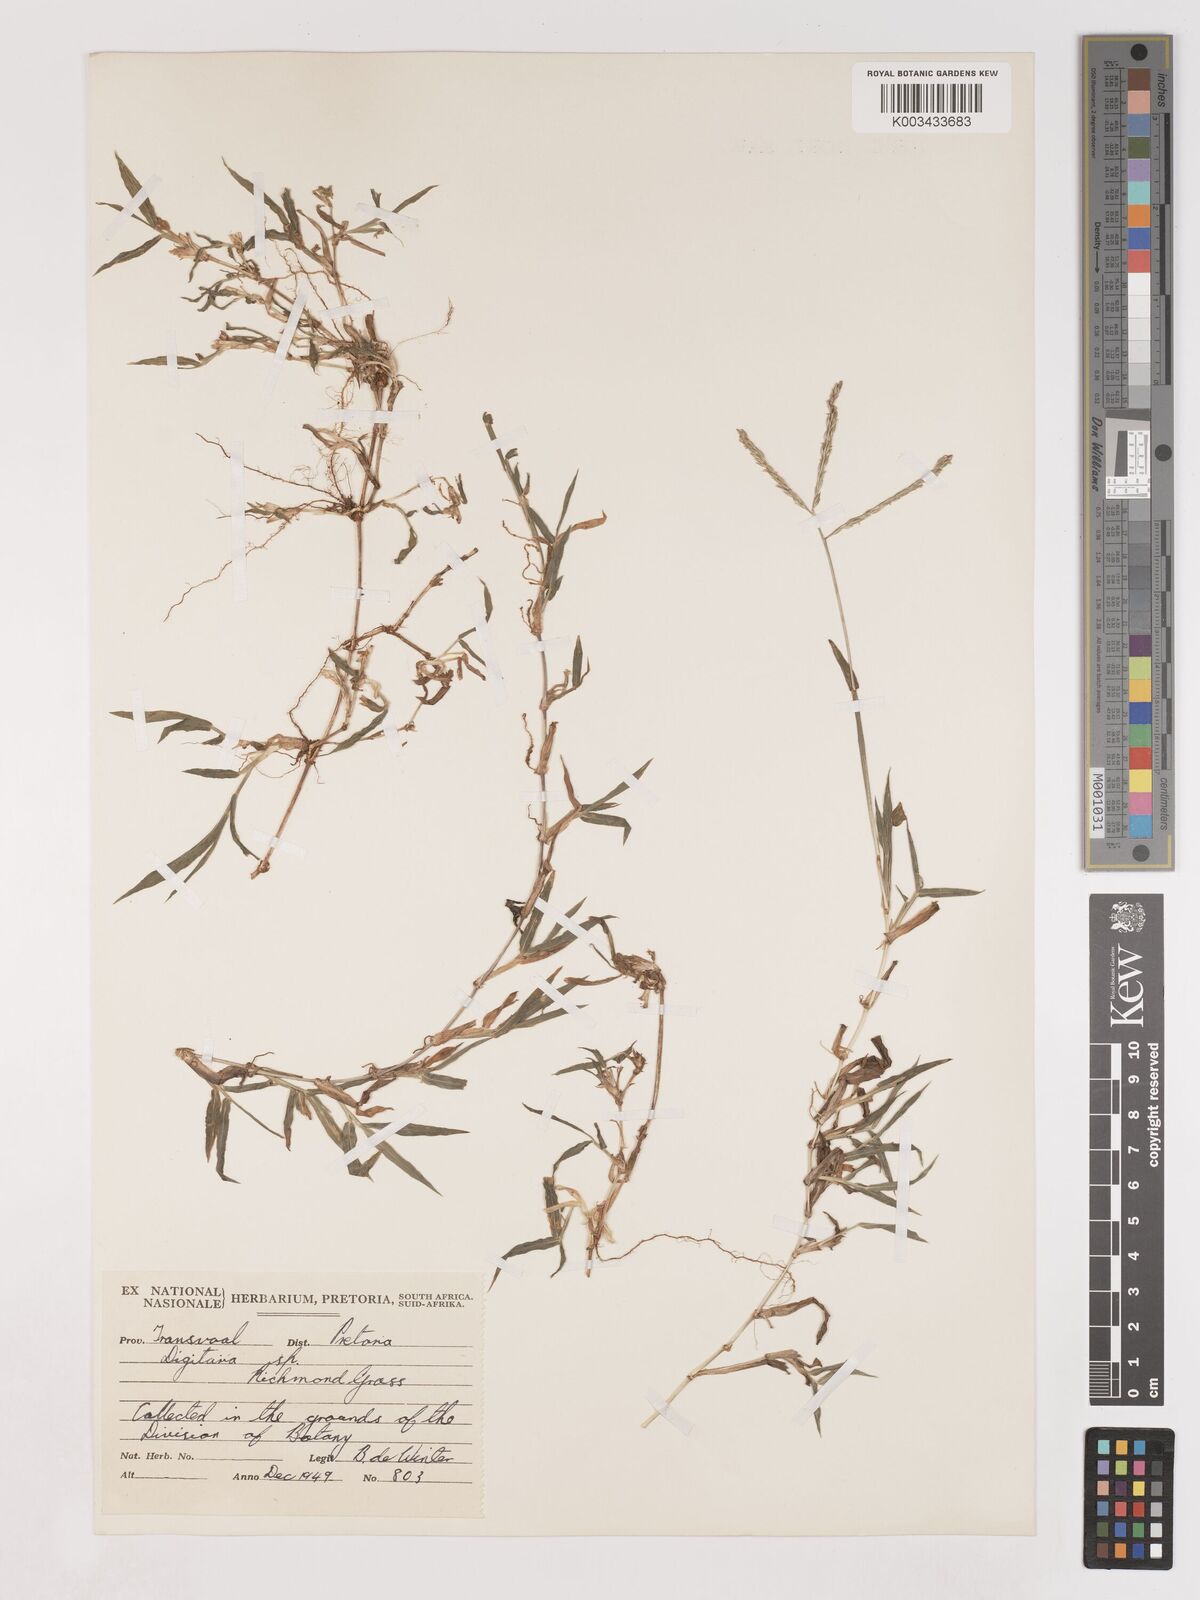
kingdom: Plantae
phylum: Tracheophyta
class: Liliopsida
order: Poales
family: Poaceae
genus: Digitaria
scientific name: Digitaria diversinervis
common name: Richmond finger grass
